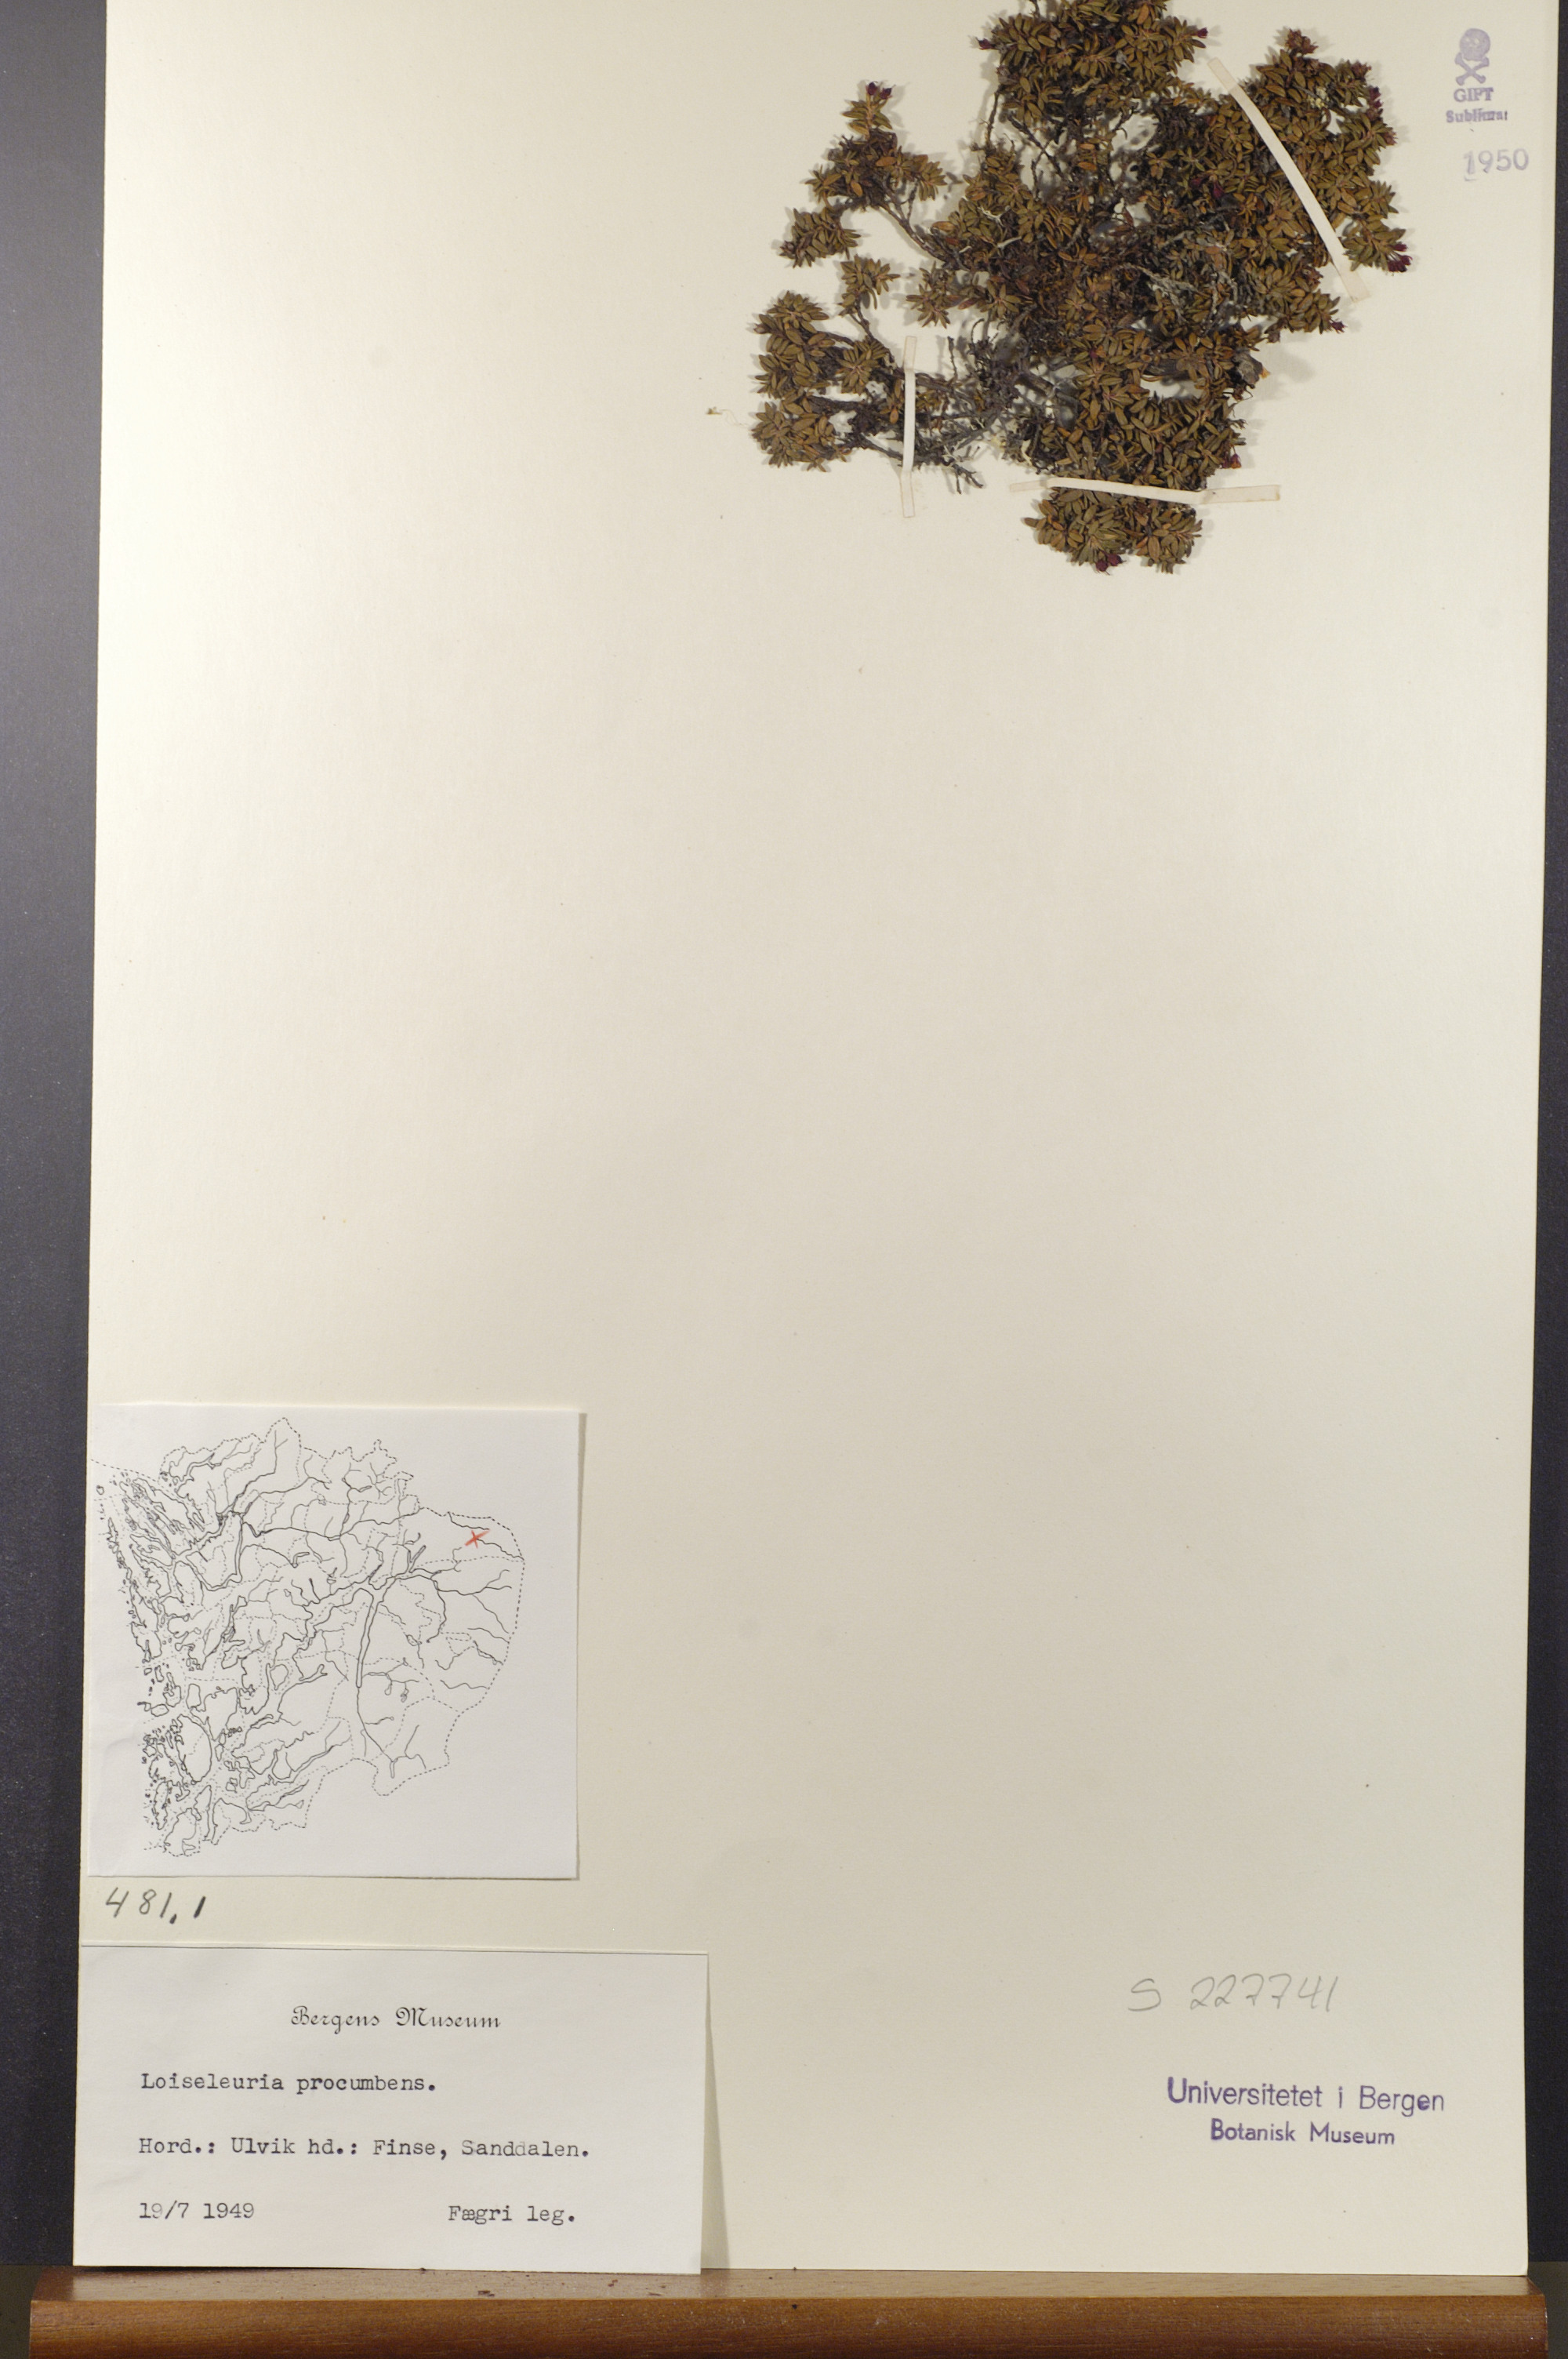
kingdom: Plantae
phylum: Tracheophyta
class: Magnoliopsida
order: Ericales
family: Ericaceae
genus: Kalmia
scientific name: Kalmia procumbens
